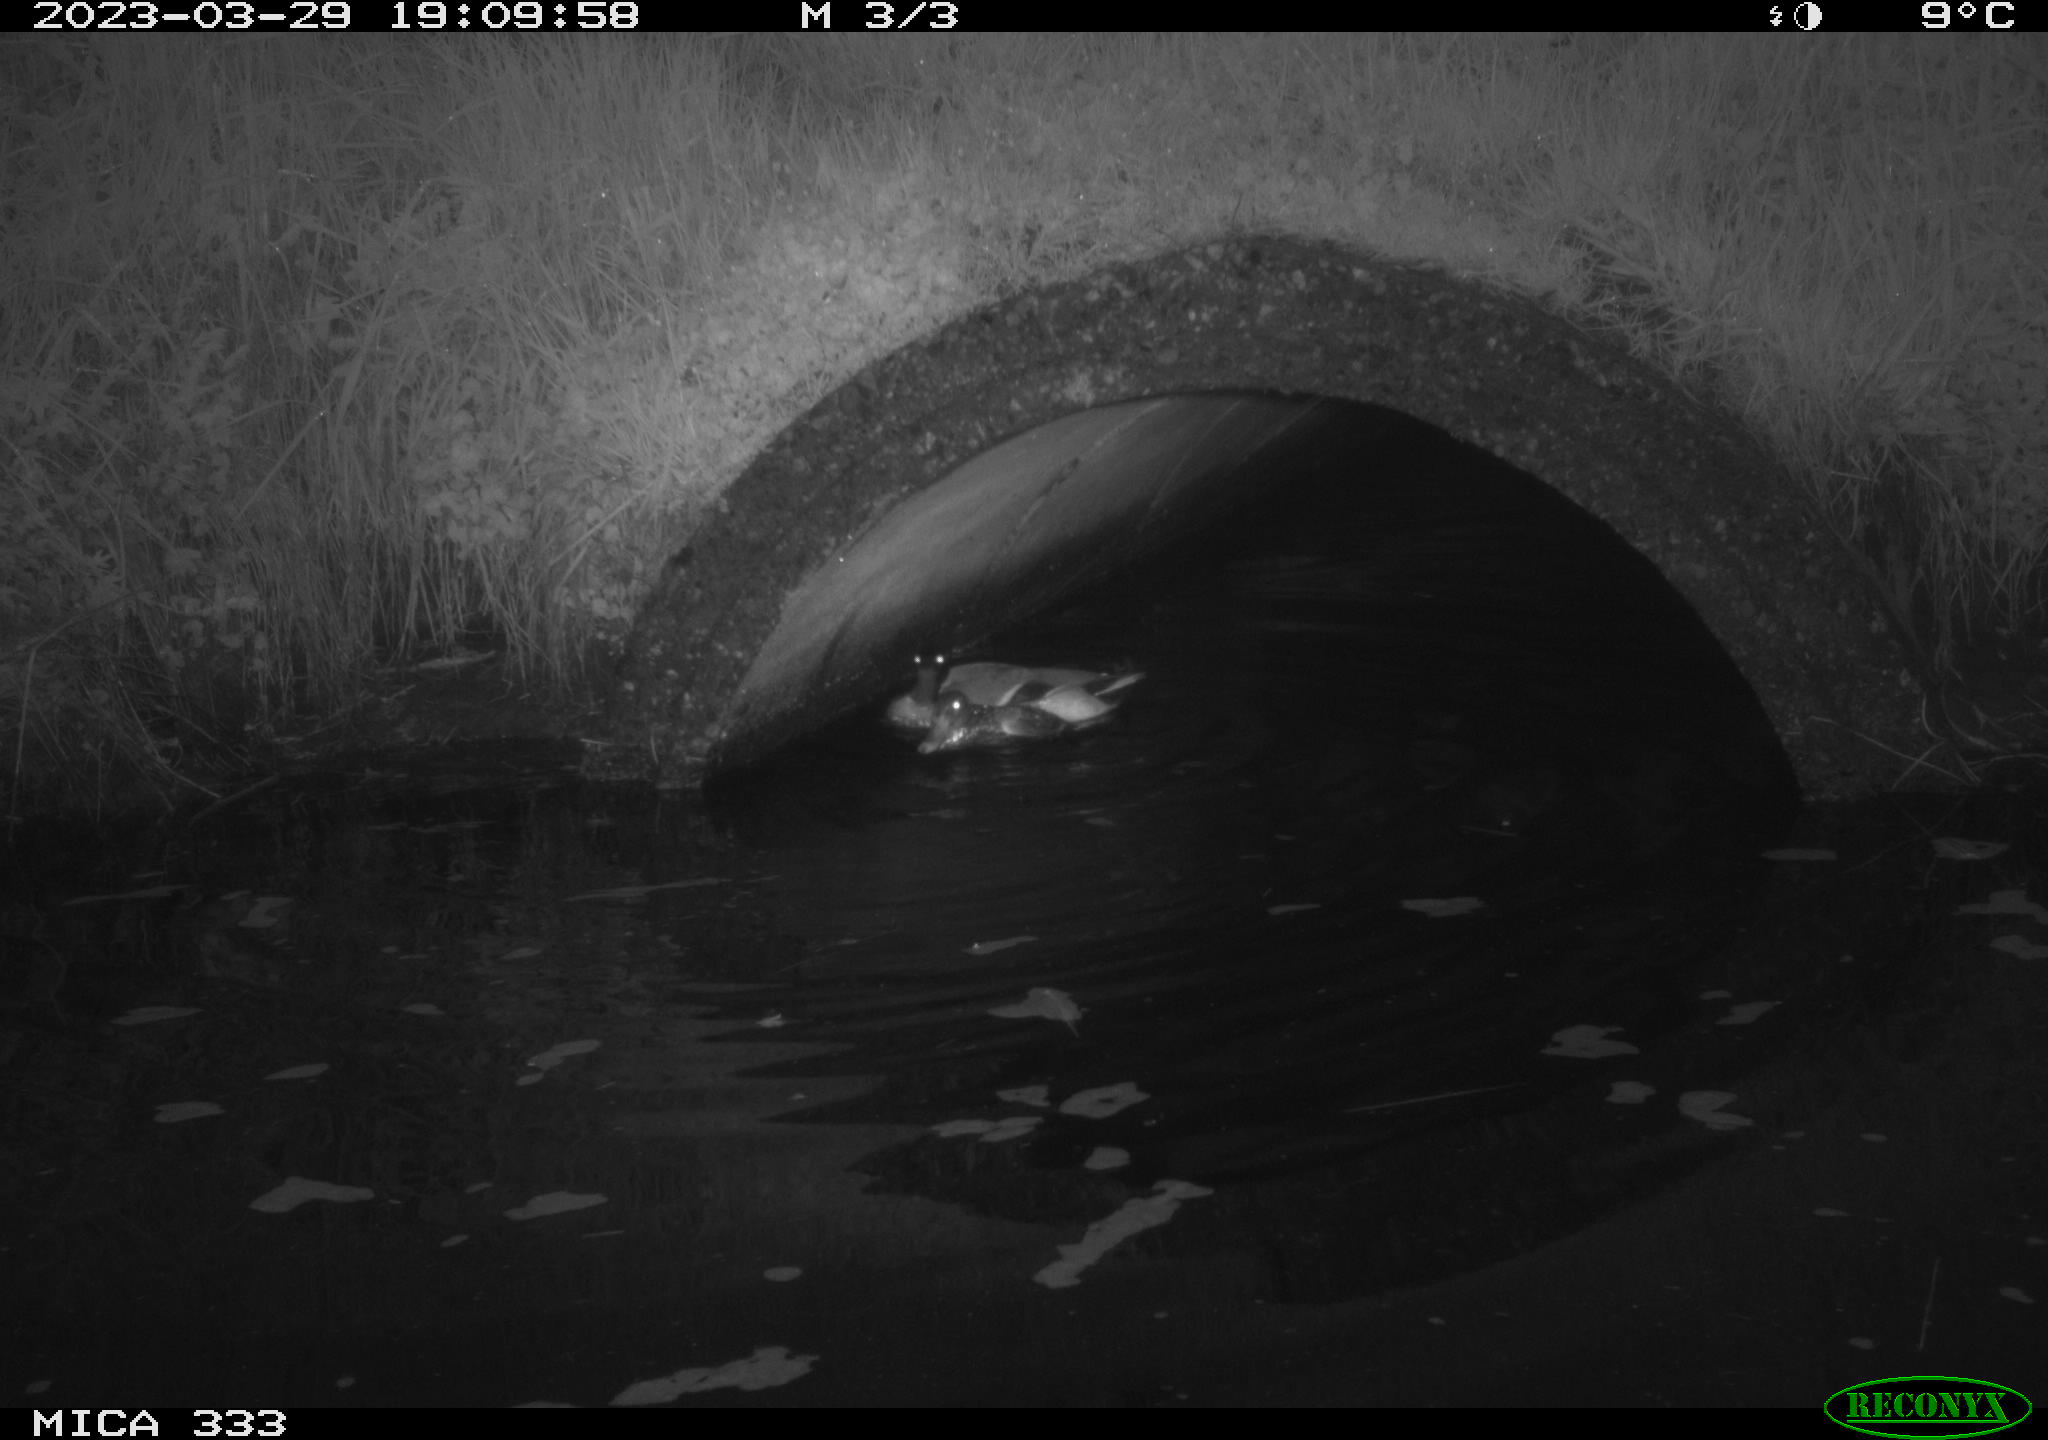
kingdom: Animalia
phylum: Chordata
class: Aves
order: Anseriformes
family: Anatidae
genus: Anas
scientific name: Anas
